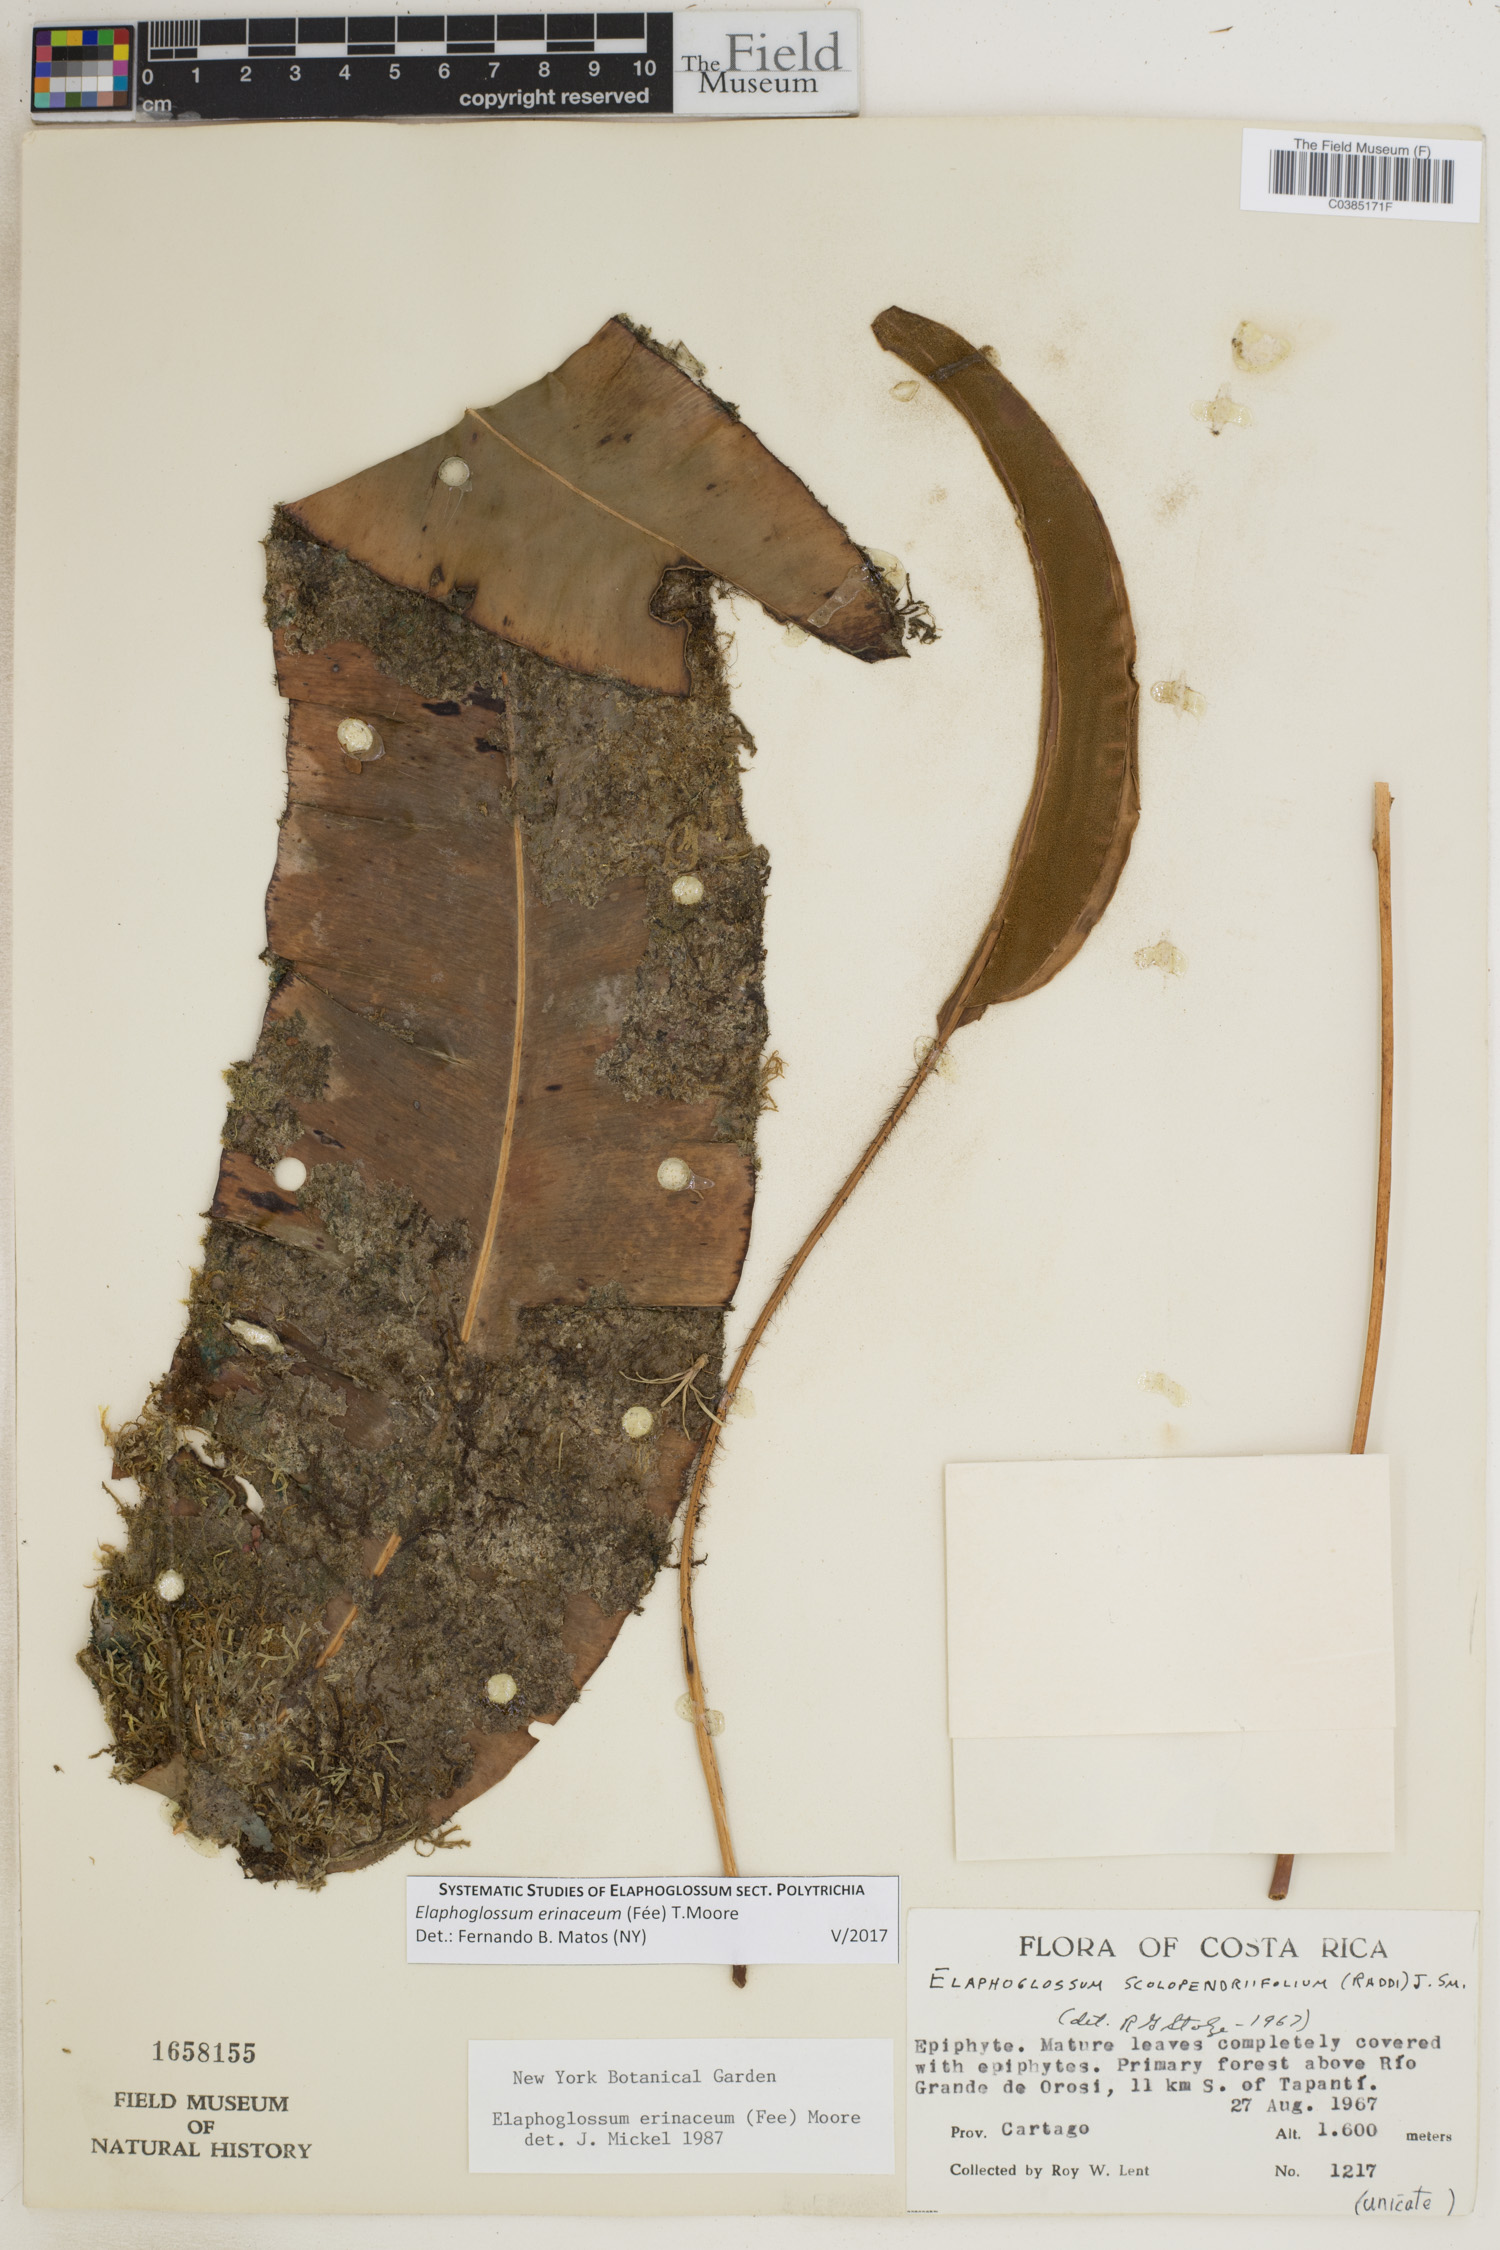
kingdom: Plantae
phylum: Tracheophyta
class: Polypodiopsida
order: Polypodiales
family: Dryopteridaceae
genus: Elaphoglossum
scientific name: Elaphoglossum erinaceum
